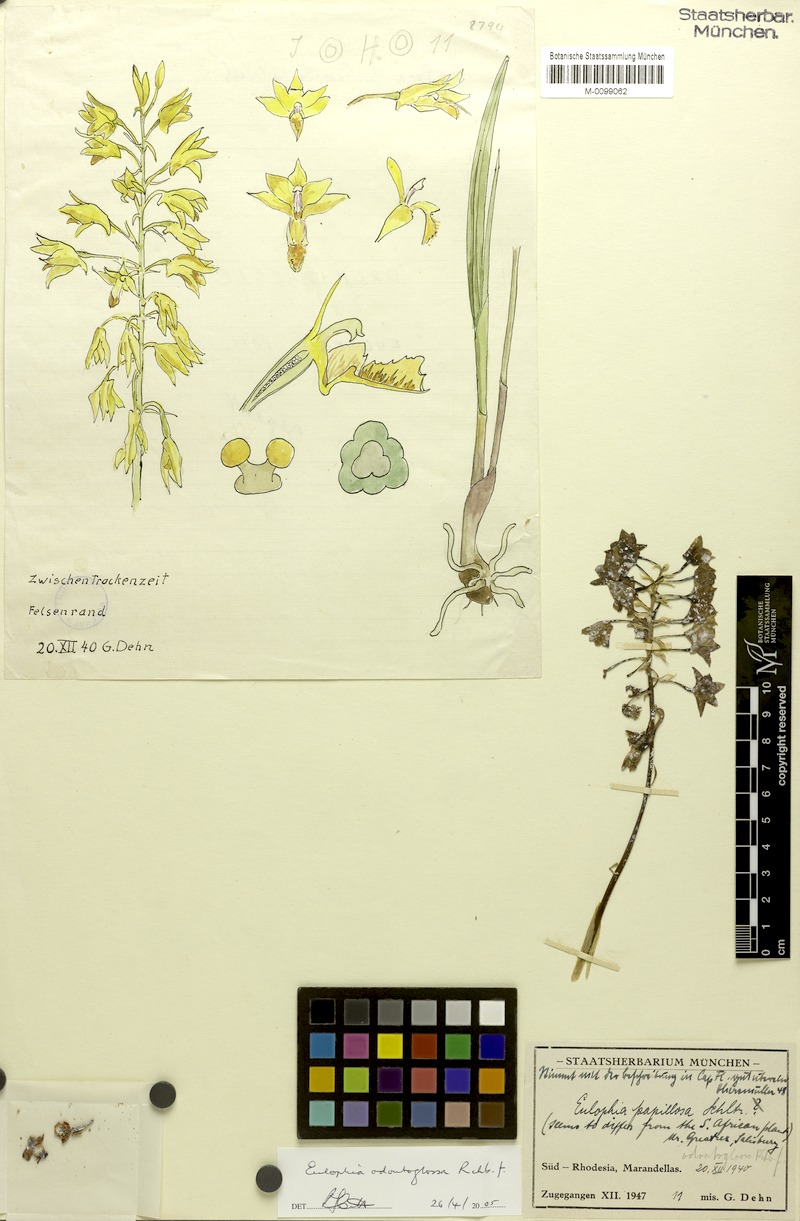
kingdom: Plantae
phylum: Tracheophyta
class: Liliopsida
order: Asparagales
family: Orchidaceae
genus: Eulophia
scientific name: Eulophia odontoglossa
